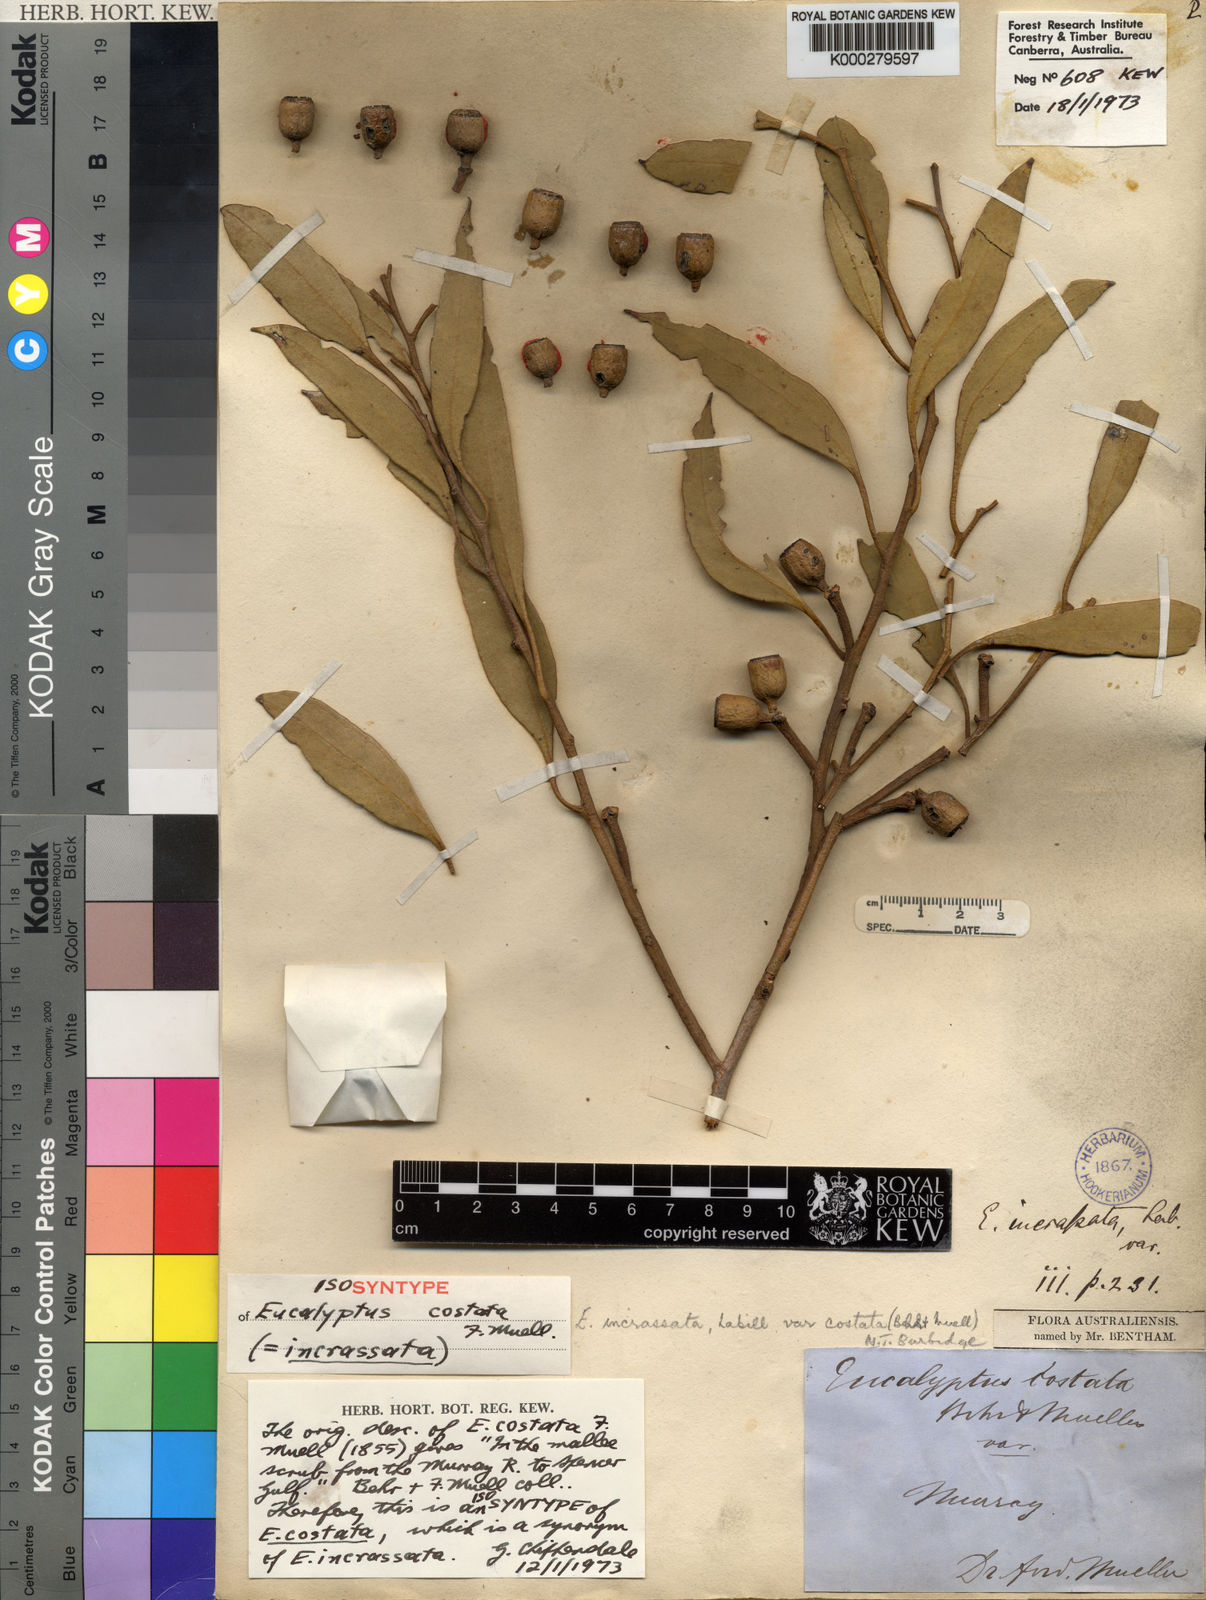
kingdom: Plantae
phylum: Tracheophyta
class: Magnoliopsida
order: Myrtales
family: Myrtaceae
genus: Eucalyptus
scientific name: Eucalyptus incrassata
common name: Ridge-fruit mallee
